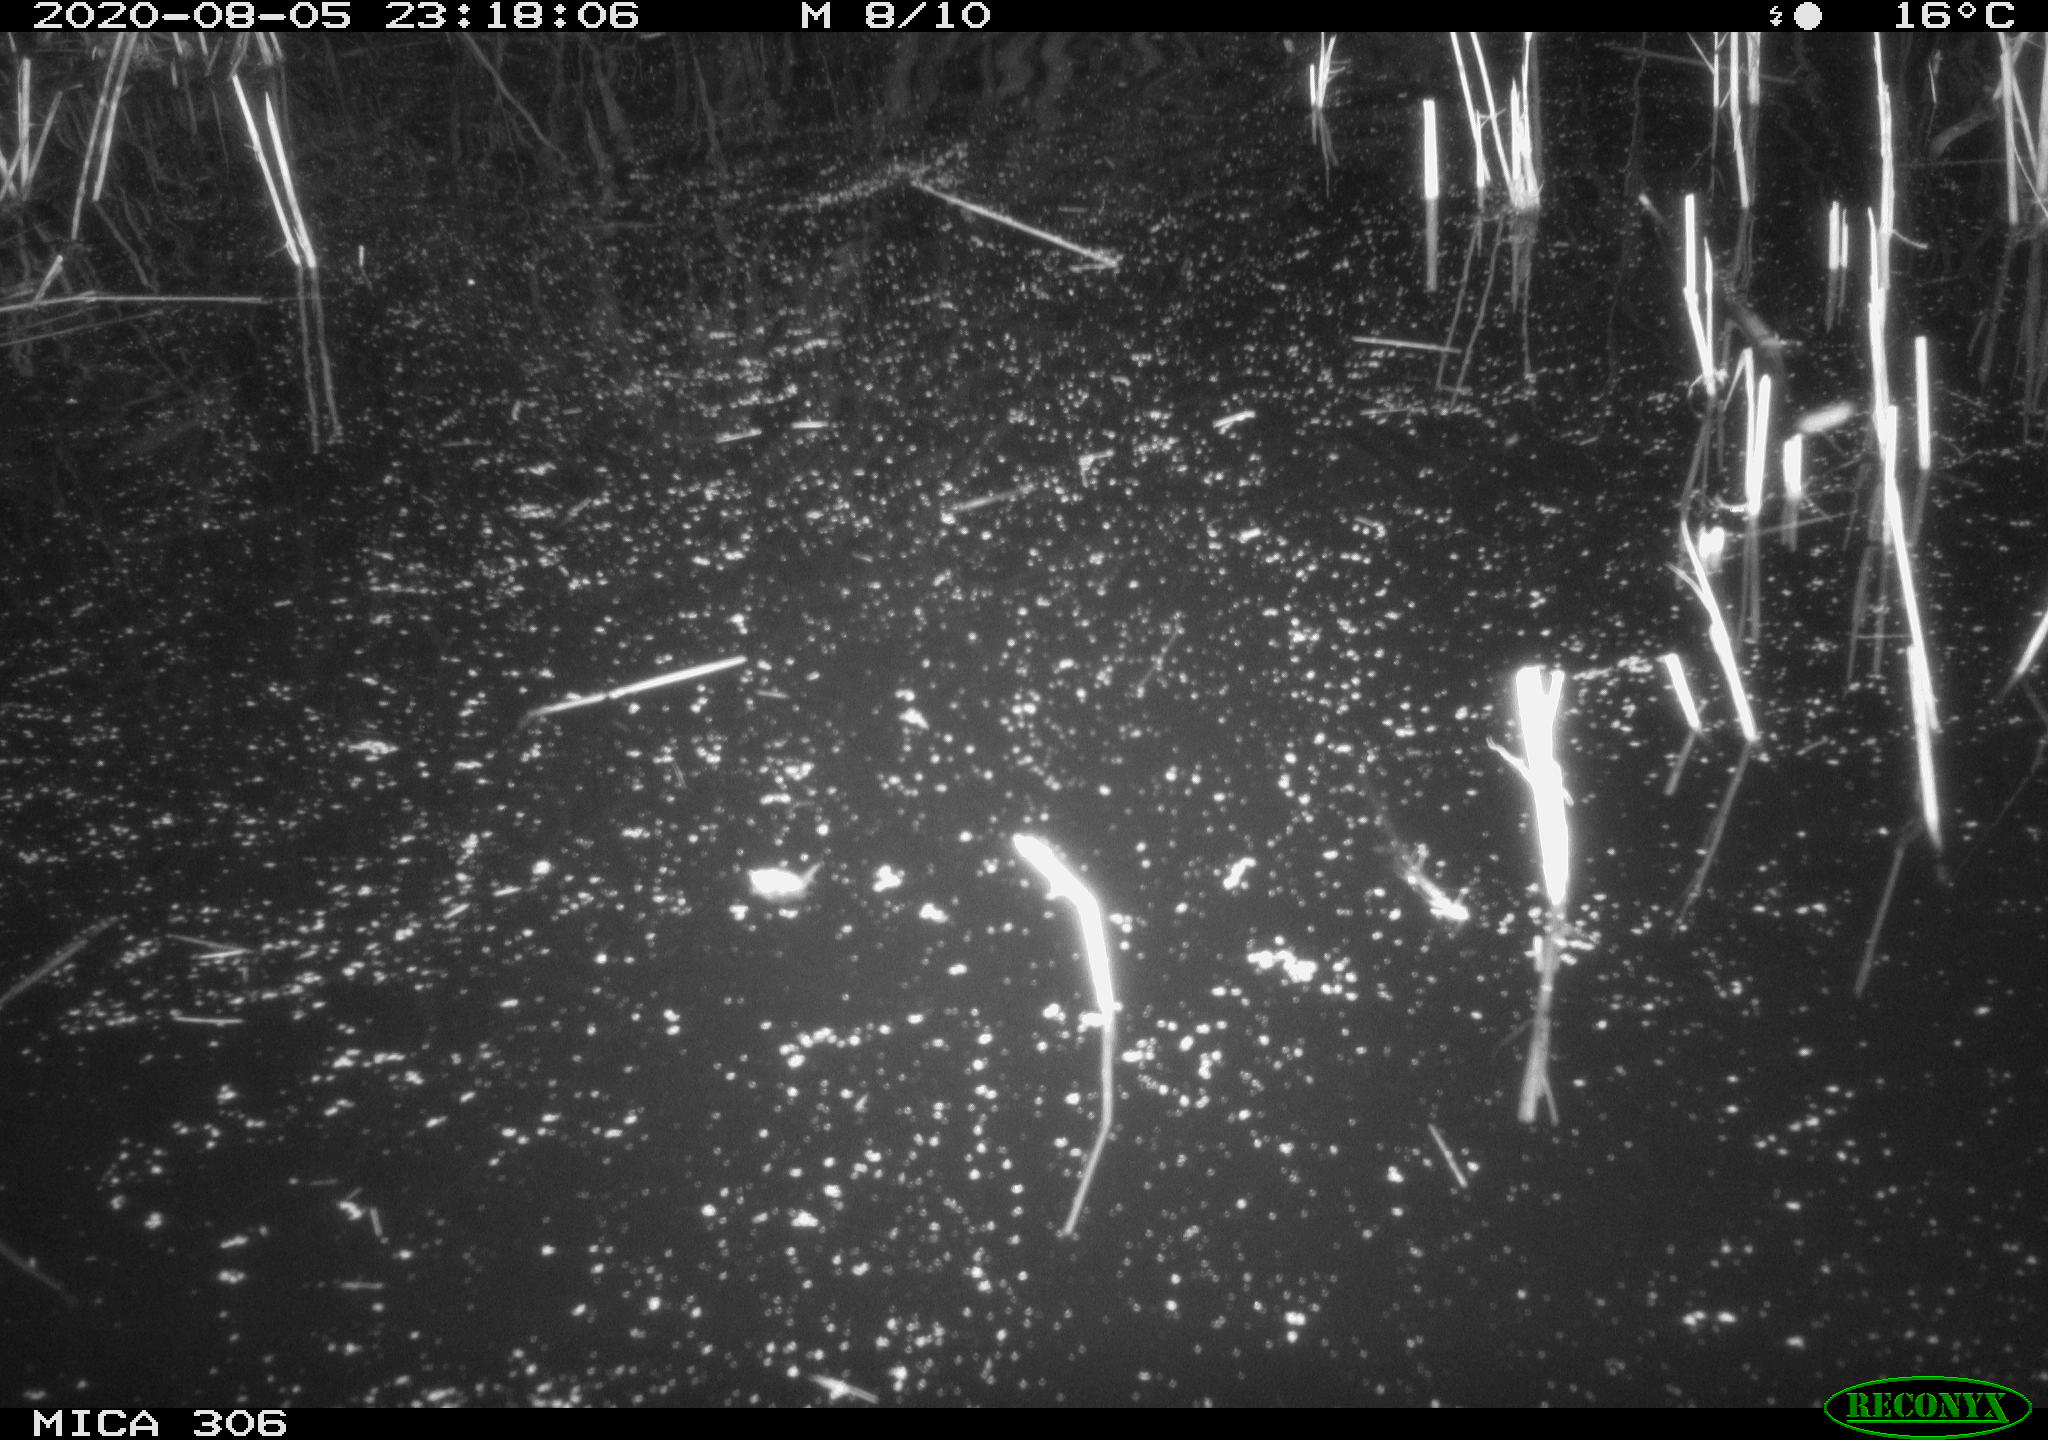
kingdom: Animalia
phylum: Chordata
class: Mammalia
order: Rodentia
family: Muridae
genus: Rattus
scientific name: Rattus norvegicus
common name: Brown rat
